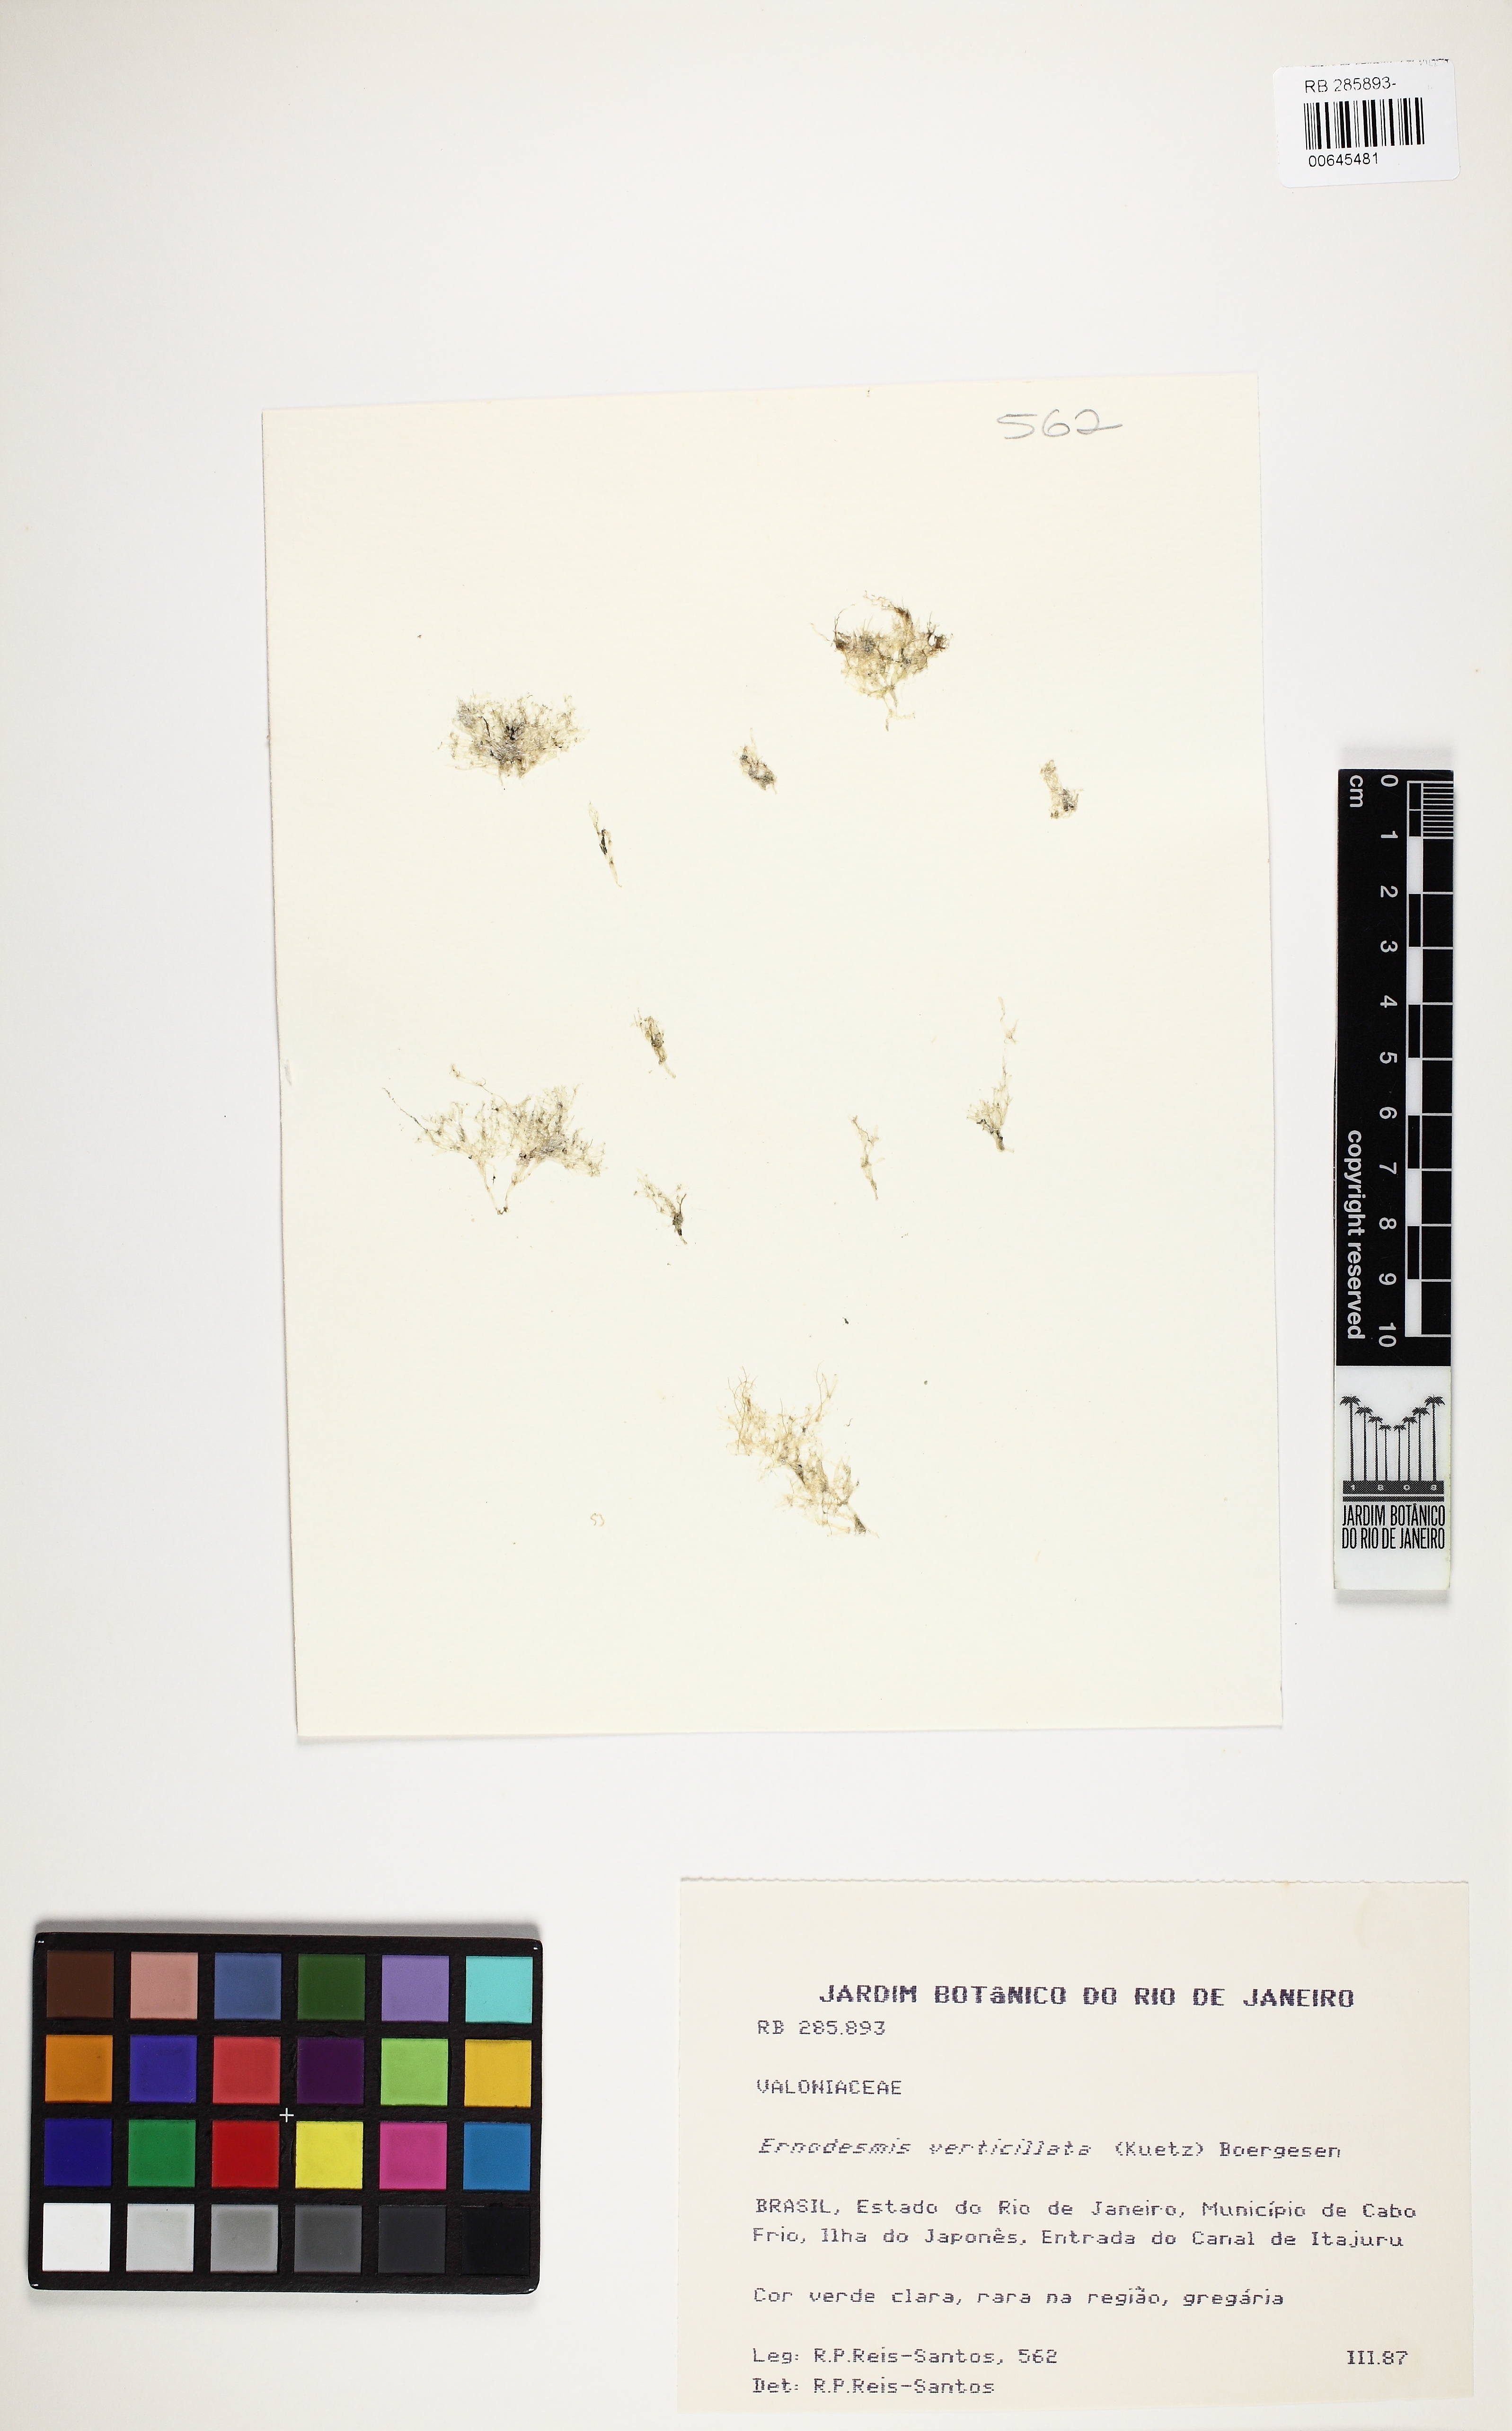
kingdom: Plantae
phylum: Chlorophyta
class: Ulvophyceae
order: Siphonocladales
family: Siphonocladaceae
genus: Ernodesmis
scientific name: Ernodesmis verticillata
